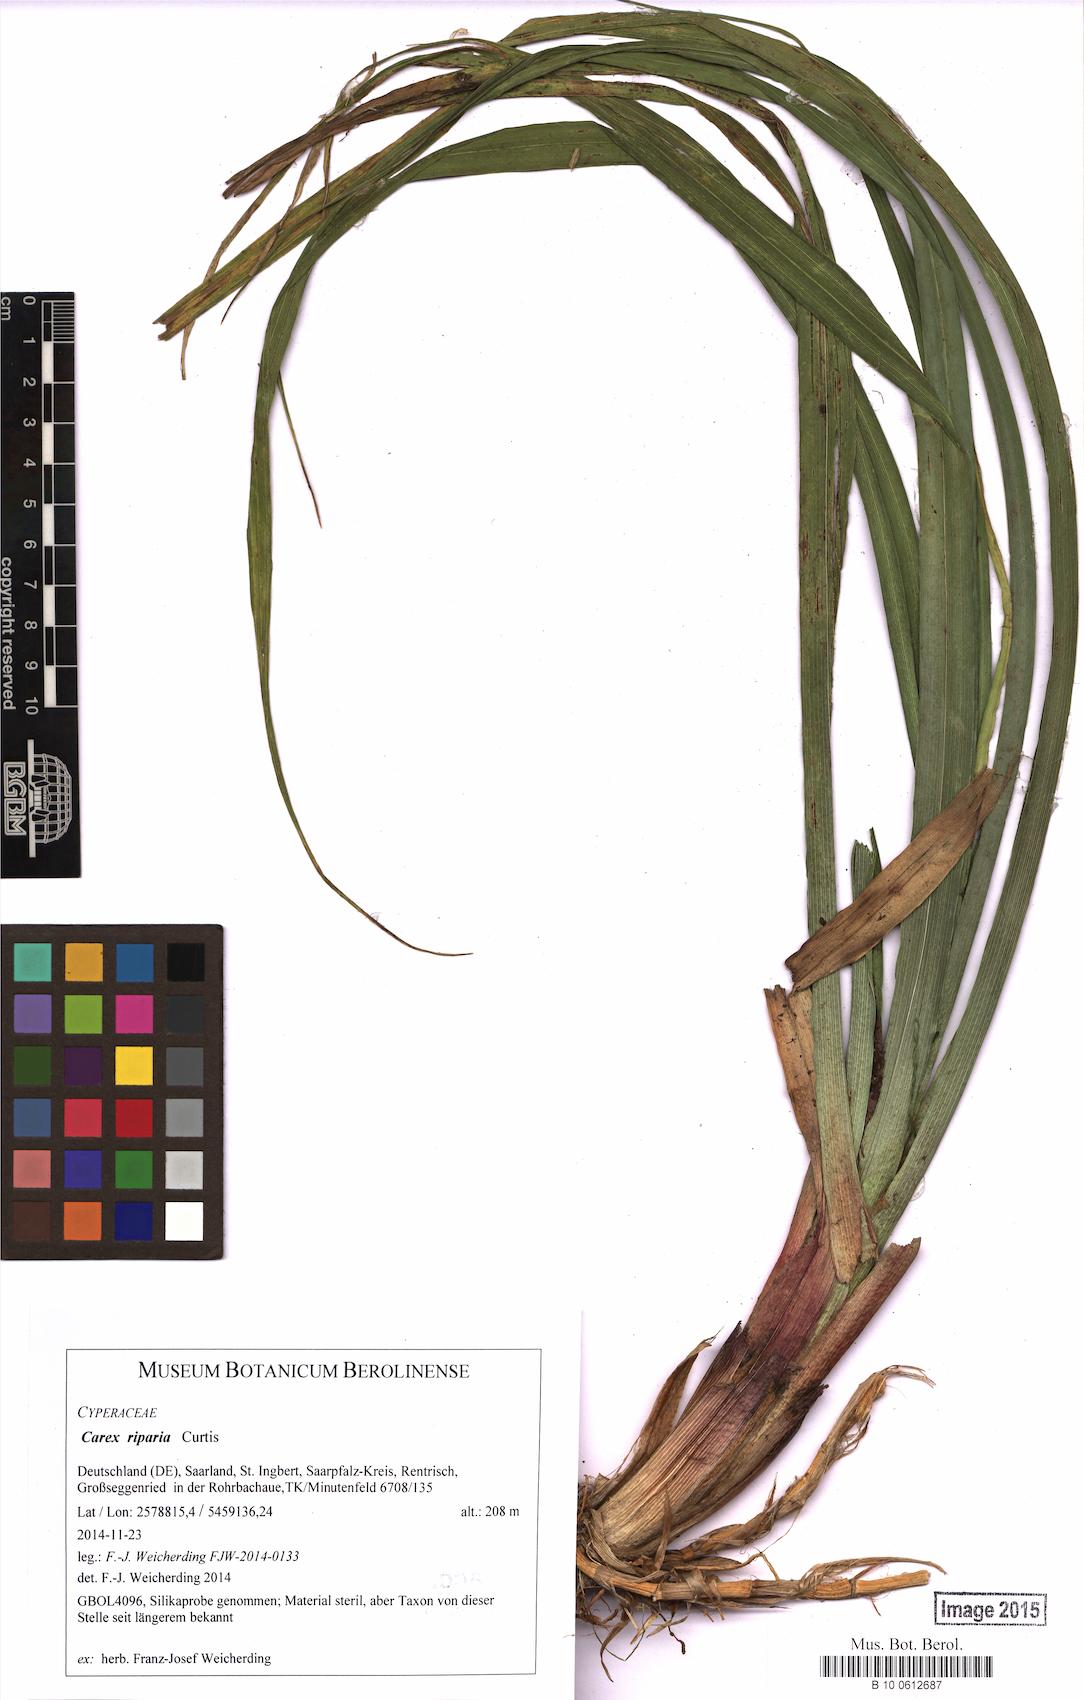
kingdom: Plantae
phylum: Tracheophyta
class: Liliopsida
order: Poales
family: Cyperaceae
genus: Carex
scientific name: Carex riparia
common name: Greater pond-sedge
